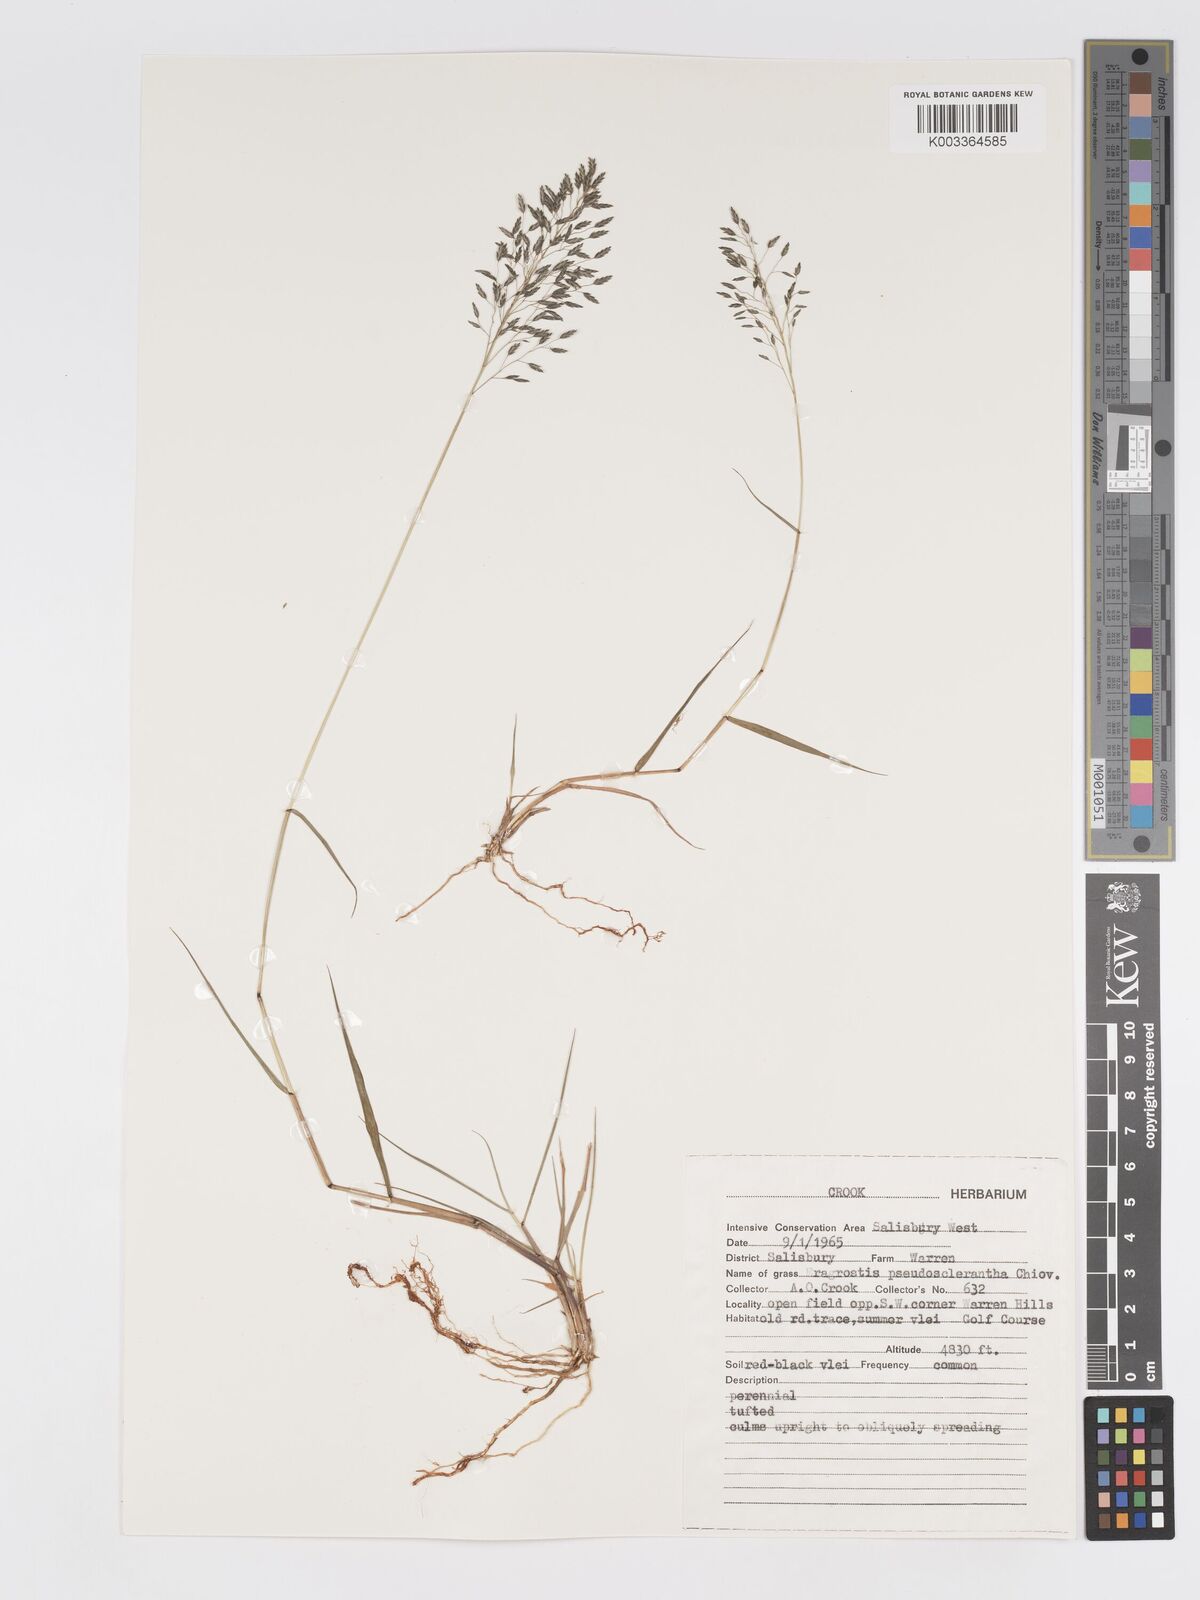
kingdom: Plantae
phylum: Tracheophyta
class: Liliopsida
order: Poales
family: Poaceae
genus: Eragrostis
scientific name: Eragrostis patentipilosa
